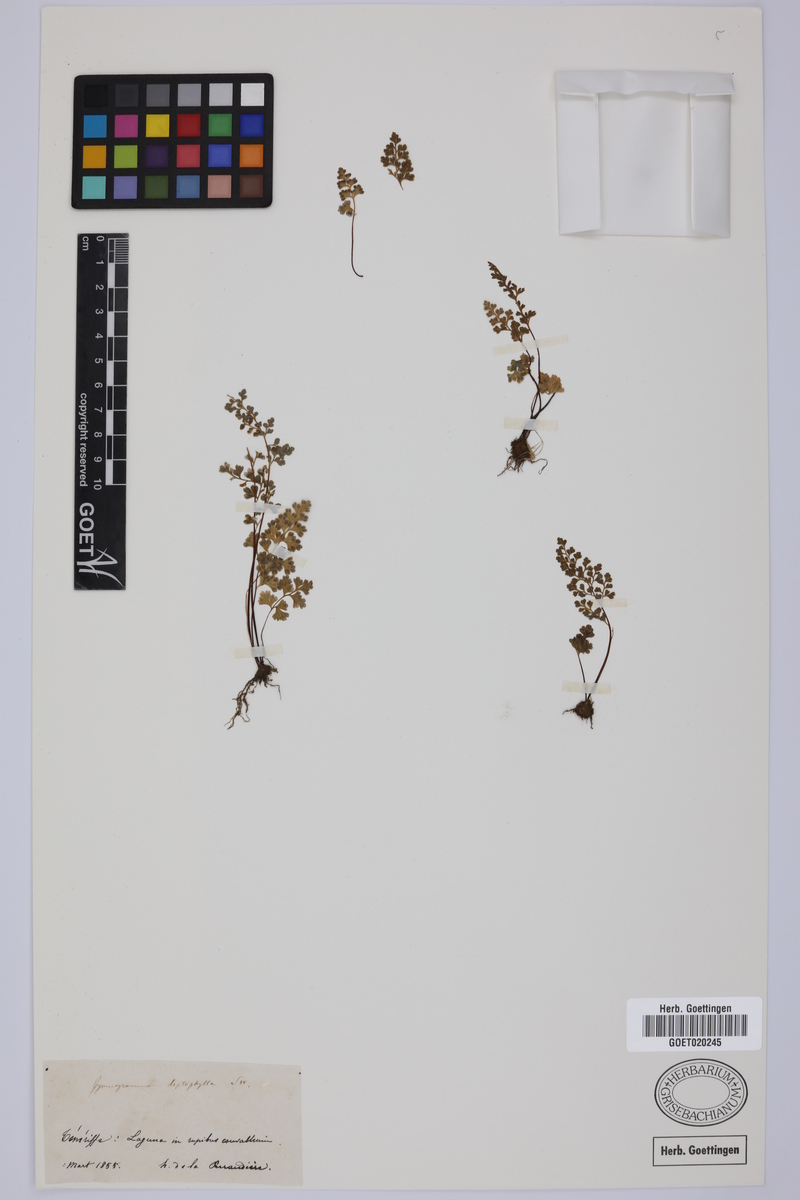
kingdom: Plantae
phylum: Tracheophyta
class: Polypodiopsida
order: Polypodiales
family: Pteridaceae
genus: Anogramma
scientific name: Anogramma leptophylla
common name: Jersey fern
